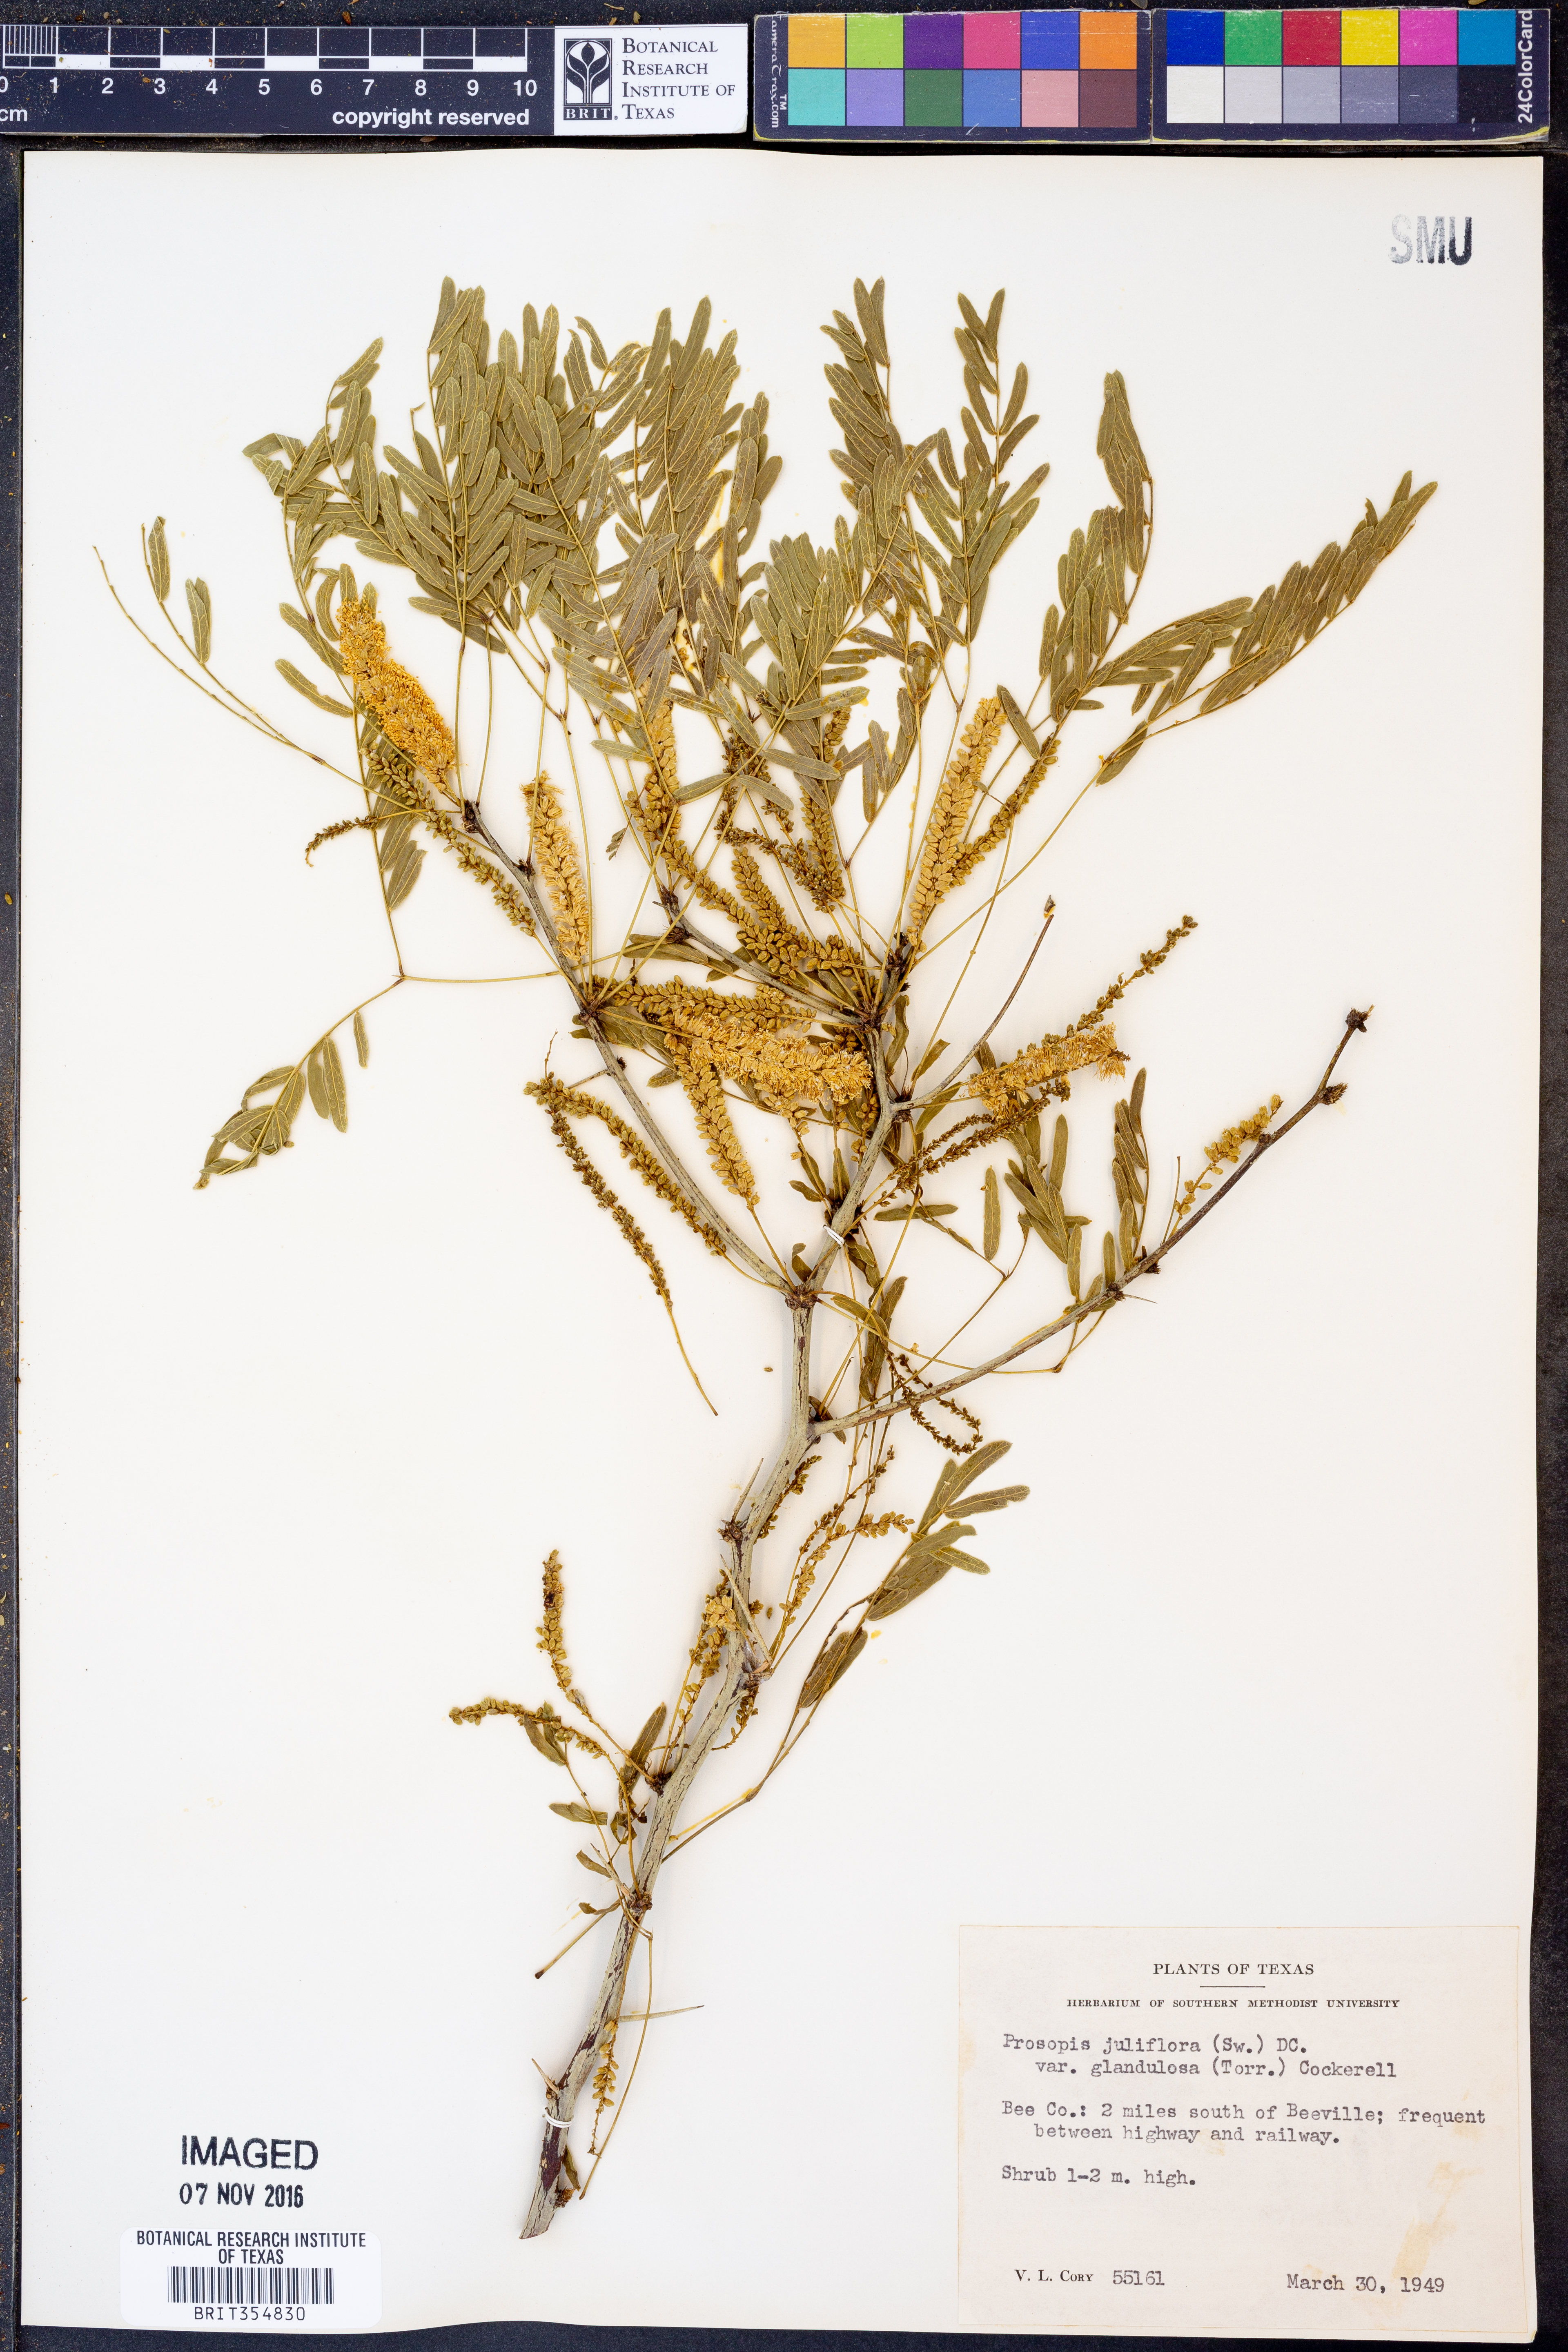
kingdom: Plantae
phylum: Tracheophyta
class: Magnoliopsida
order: Fabales
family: Fabaceae
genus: Prosopis
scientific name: Prosopis glandulosa
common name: Honey mesquite
